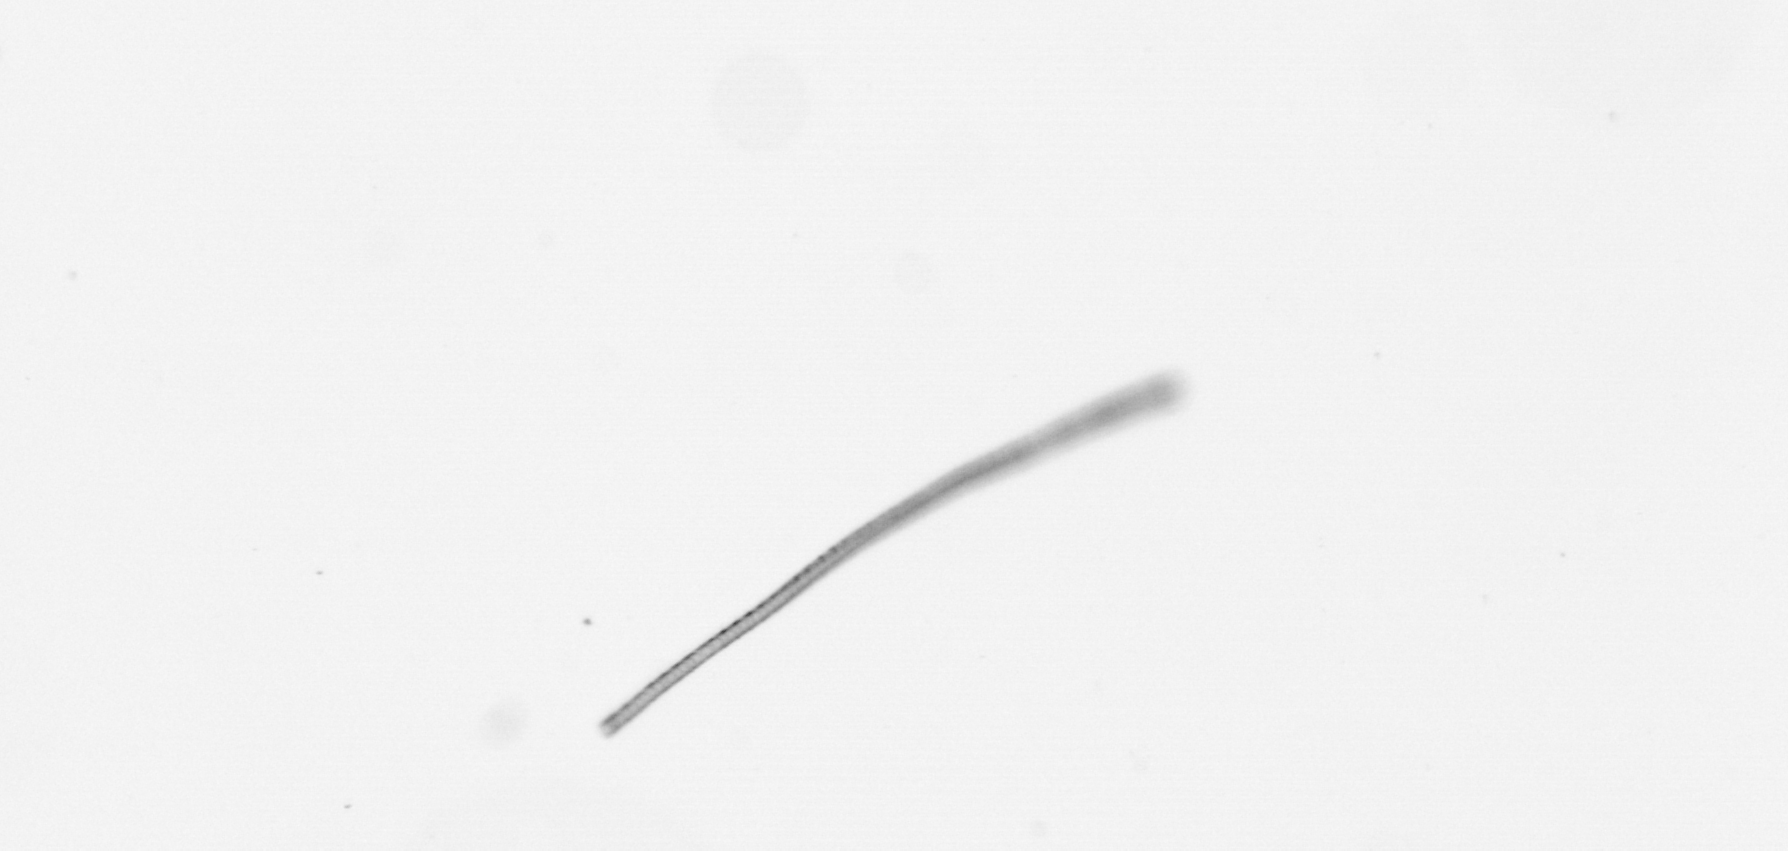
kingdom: Chromista
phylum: Ochrophyta
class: Bacillariophyceae
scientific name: Bacillariophyceae
